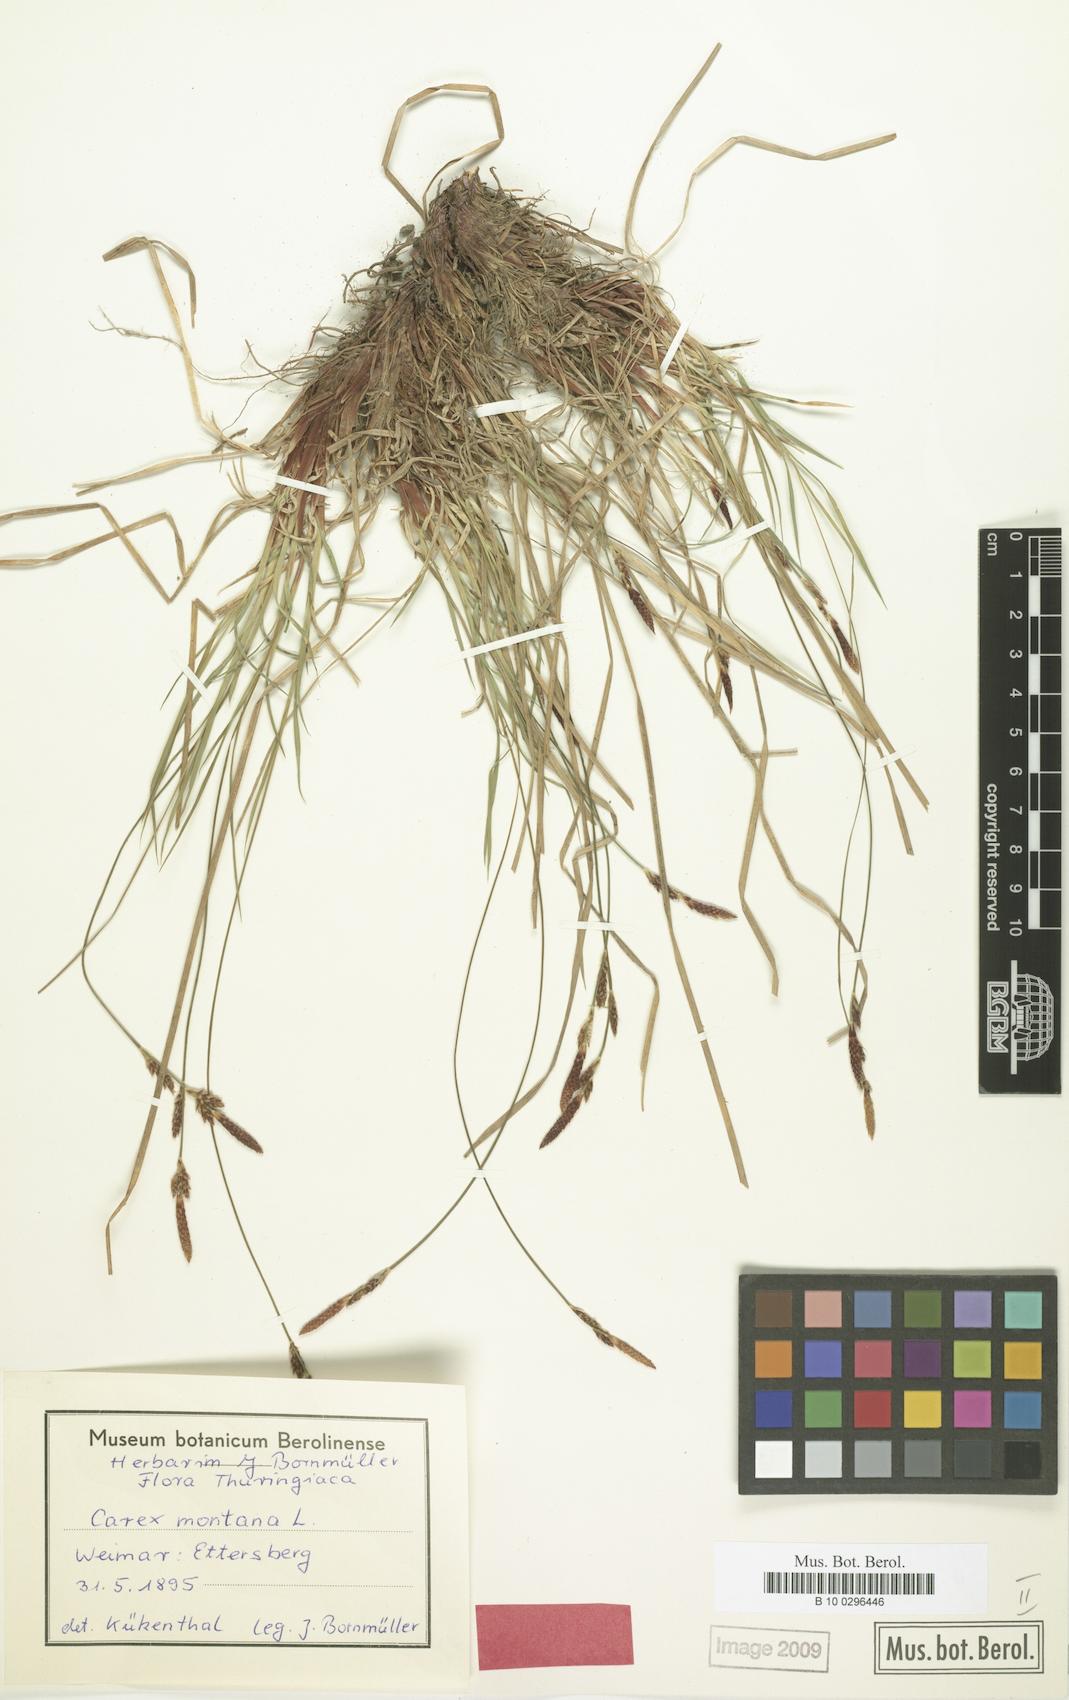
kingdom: Plantae
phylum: Tracheophyta
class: Liliopsida
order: Poales
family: Cyperaceae
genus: Carex
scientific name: Carex montana
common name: Soft-leaved sedge
